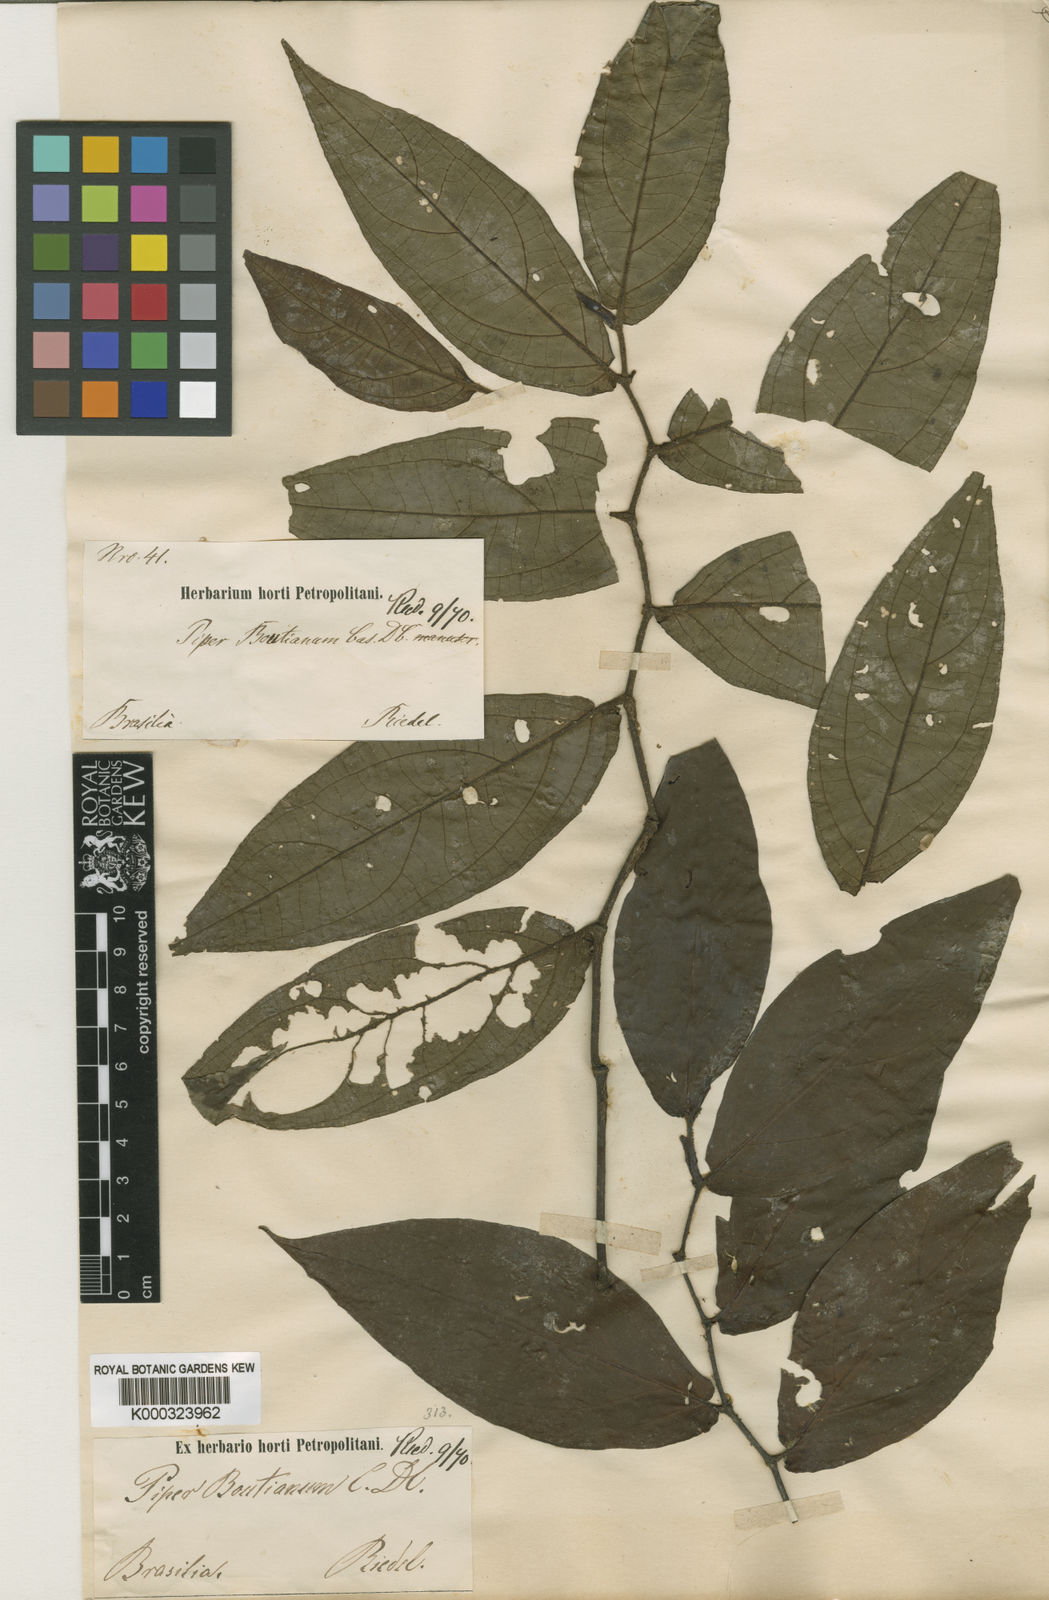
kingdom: Plantae
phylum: Tracheophyta
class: Magnoliopsida
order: Piperales
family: Piperaceae
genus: Piper
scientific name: Piper tenuinerve
